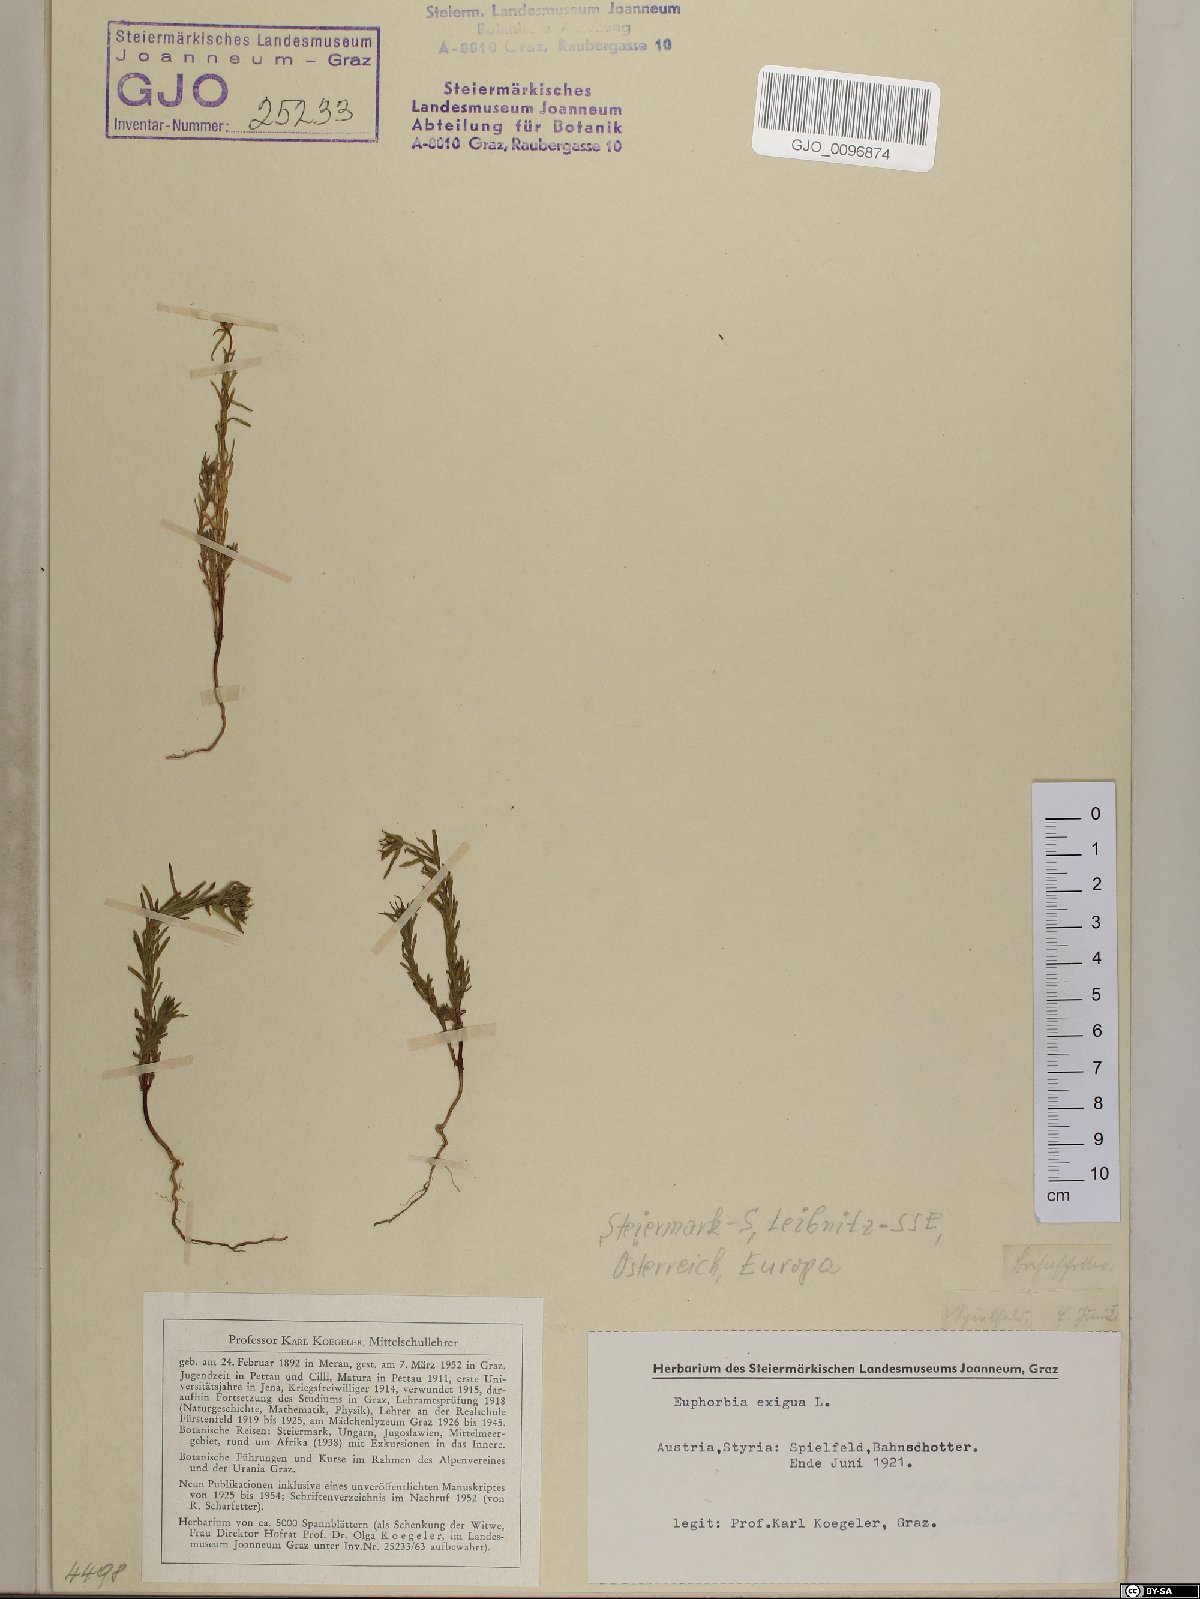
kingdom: Plantae
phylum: Tracheophyta
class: Magnoliopsida
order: Malpighiales
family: Euphorbiaceae
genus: Euphorbia
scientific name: Euphorbia exigua
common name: Dwarf spurge
